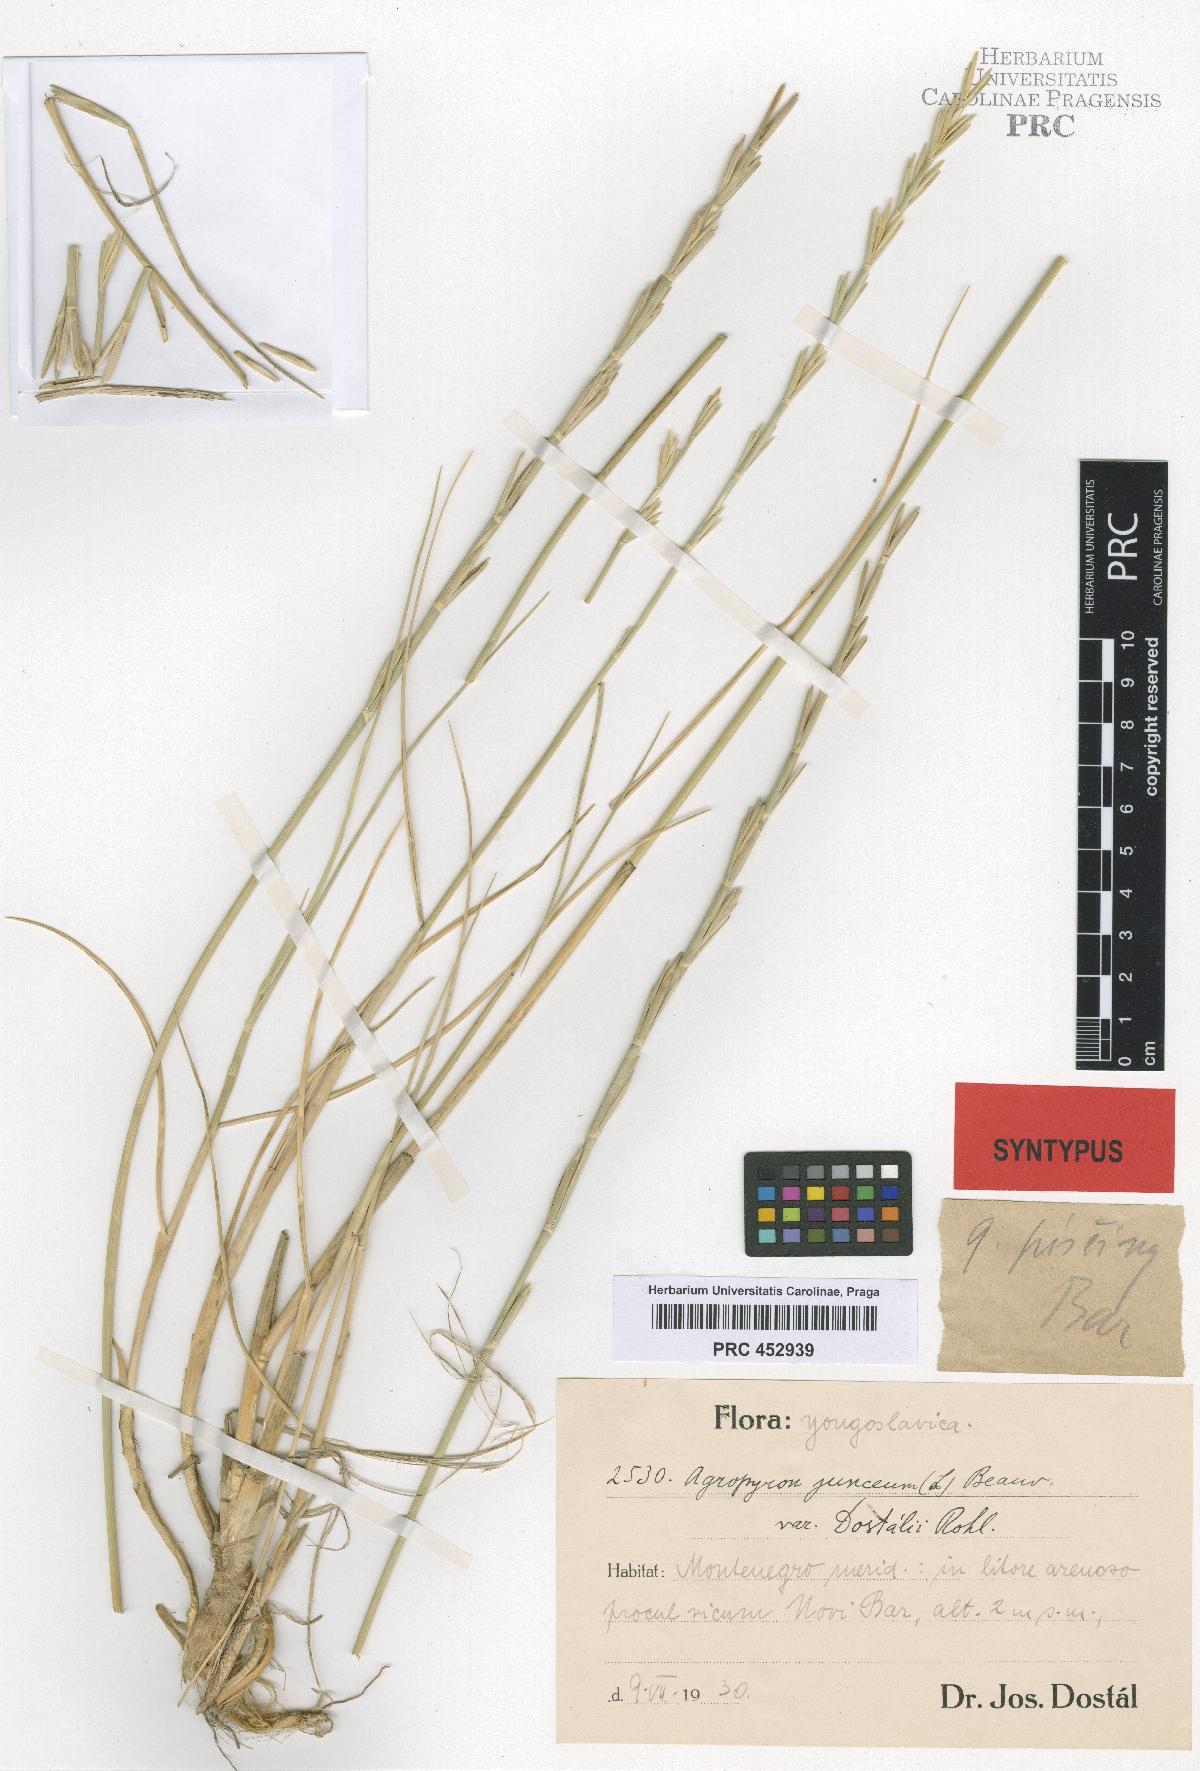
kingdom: Plantae
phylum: Tracheophyta
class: Liliopsida
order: Poales
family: Poaceae
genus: Thinopyrum
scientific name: Thinopyrum junceum
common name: Russian wheatgrass
